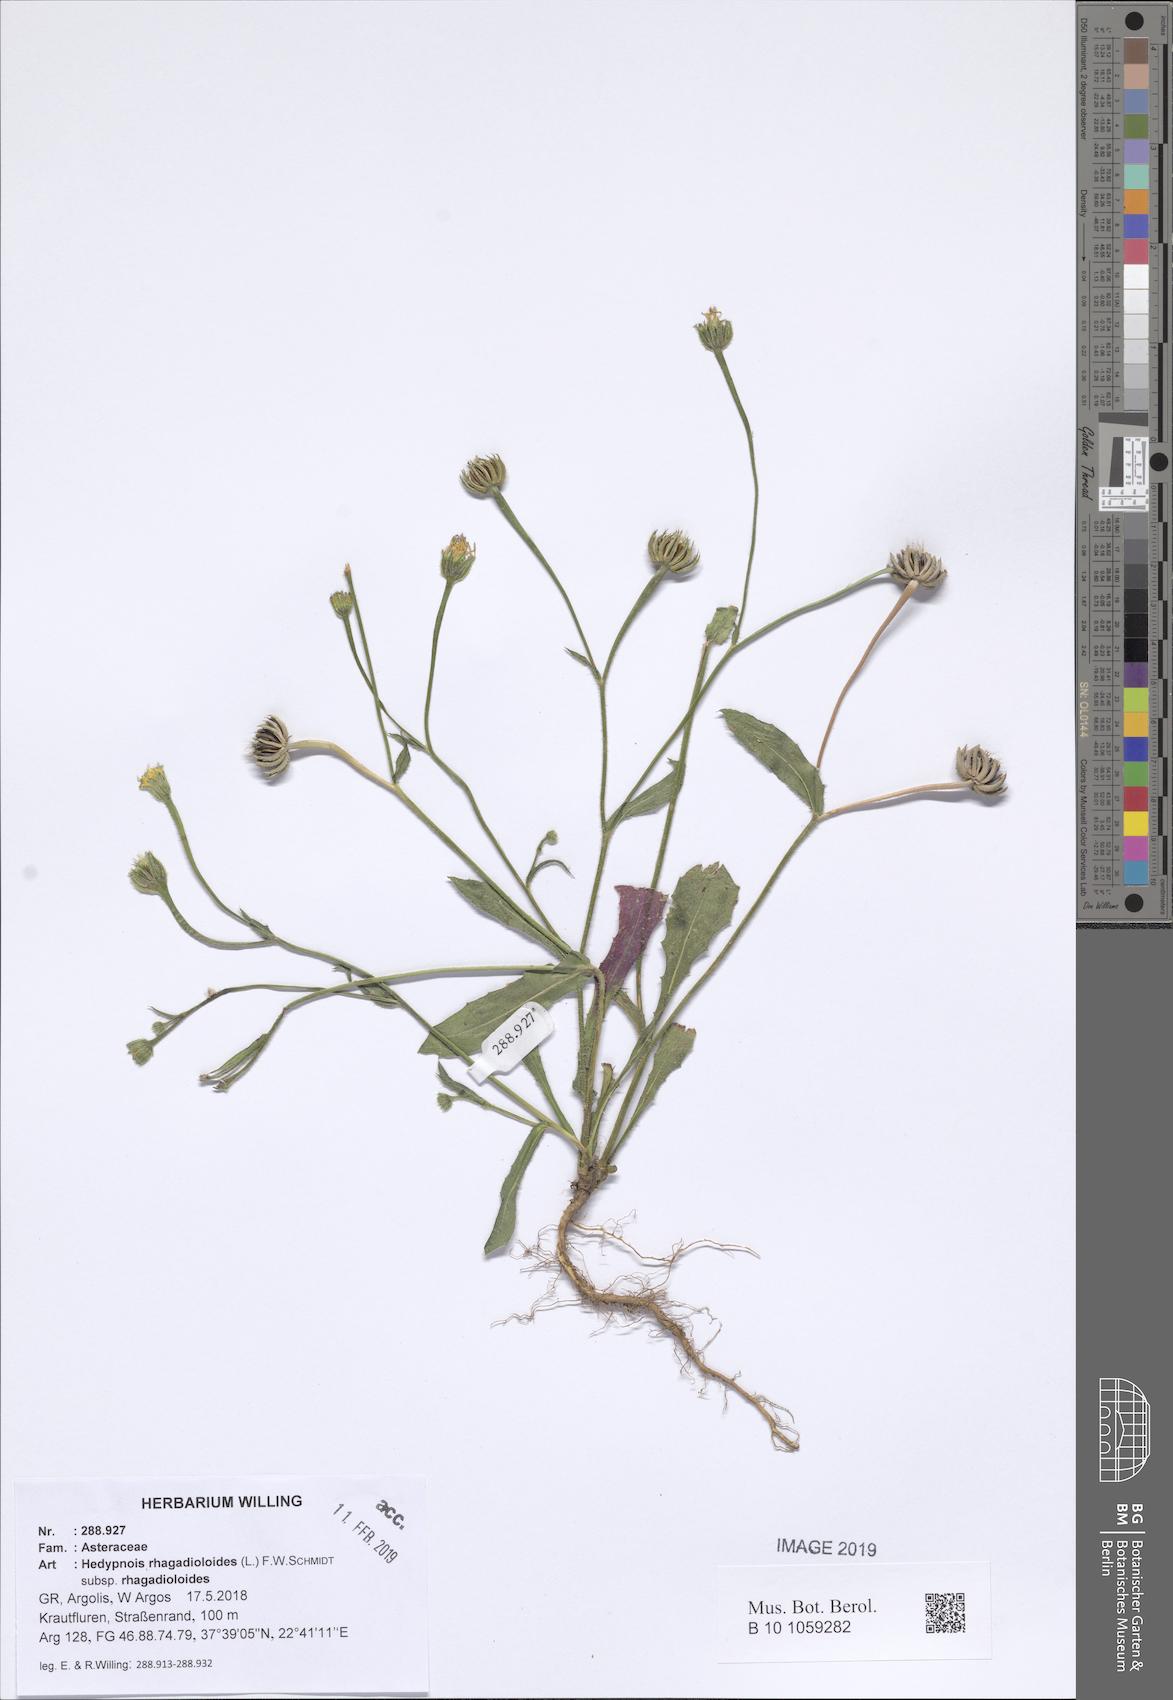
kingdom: Plantae
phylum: Tracheophyta
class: Magnoliopsida
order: Asterales
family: Asteraceae
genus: Hedypnois
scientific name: Hedypnois rhagadioloides
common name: Cretan weed
